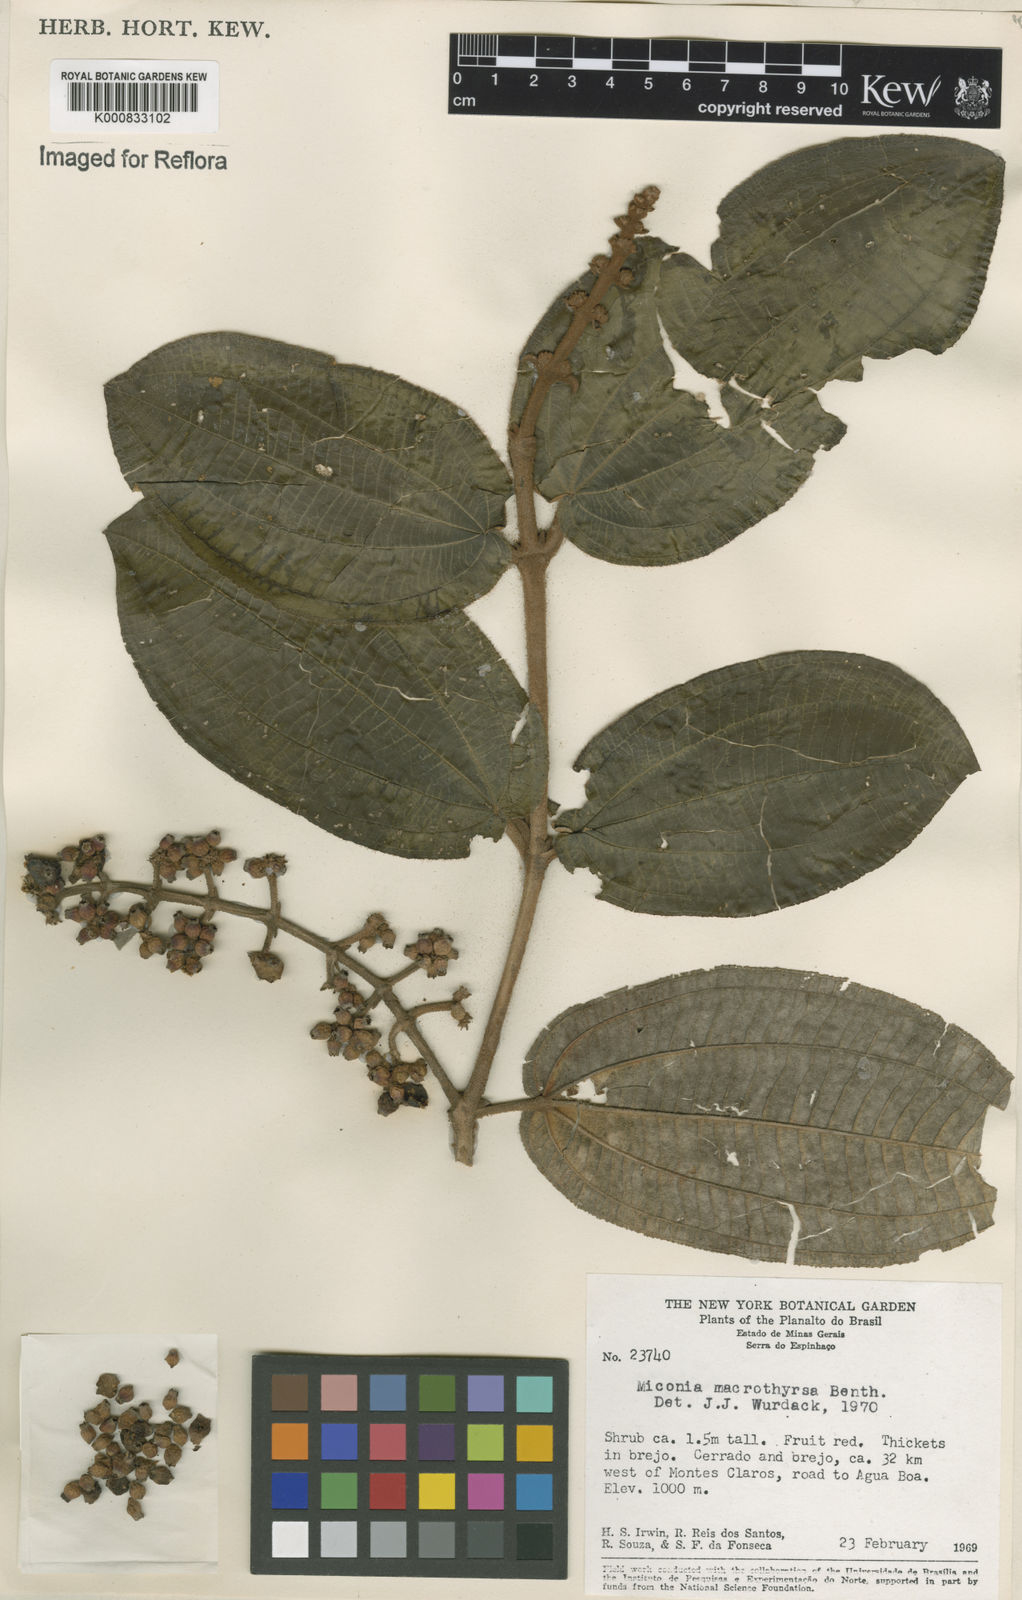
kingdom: Plantae
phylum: Tracheophyta
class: Magnoliopsida
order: Myrtales
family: Melastomataceae
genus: Miconia
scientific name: Miconia macrothyrsa
